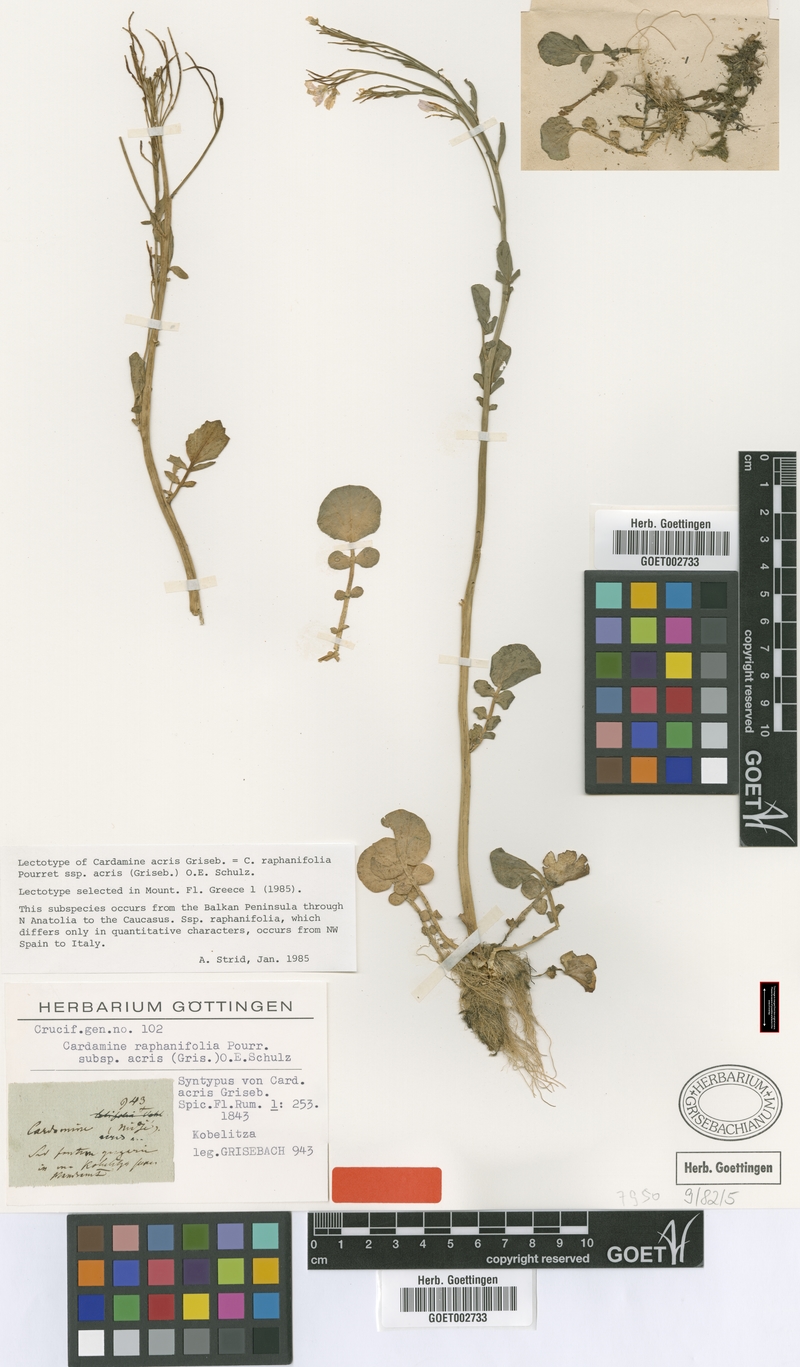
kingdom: Plantae
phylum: Tracheophyta
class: Magnoliopsida
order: Brassicales
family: Brassicaceae
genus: Cardamine
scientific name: Cardamine acris
